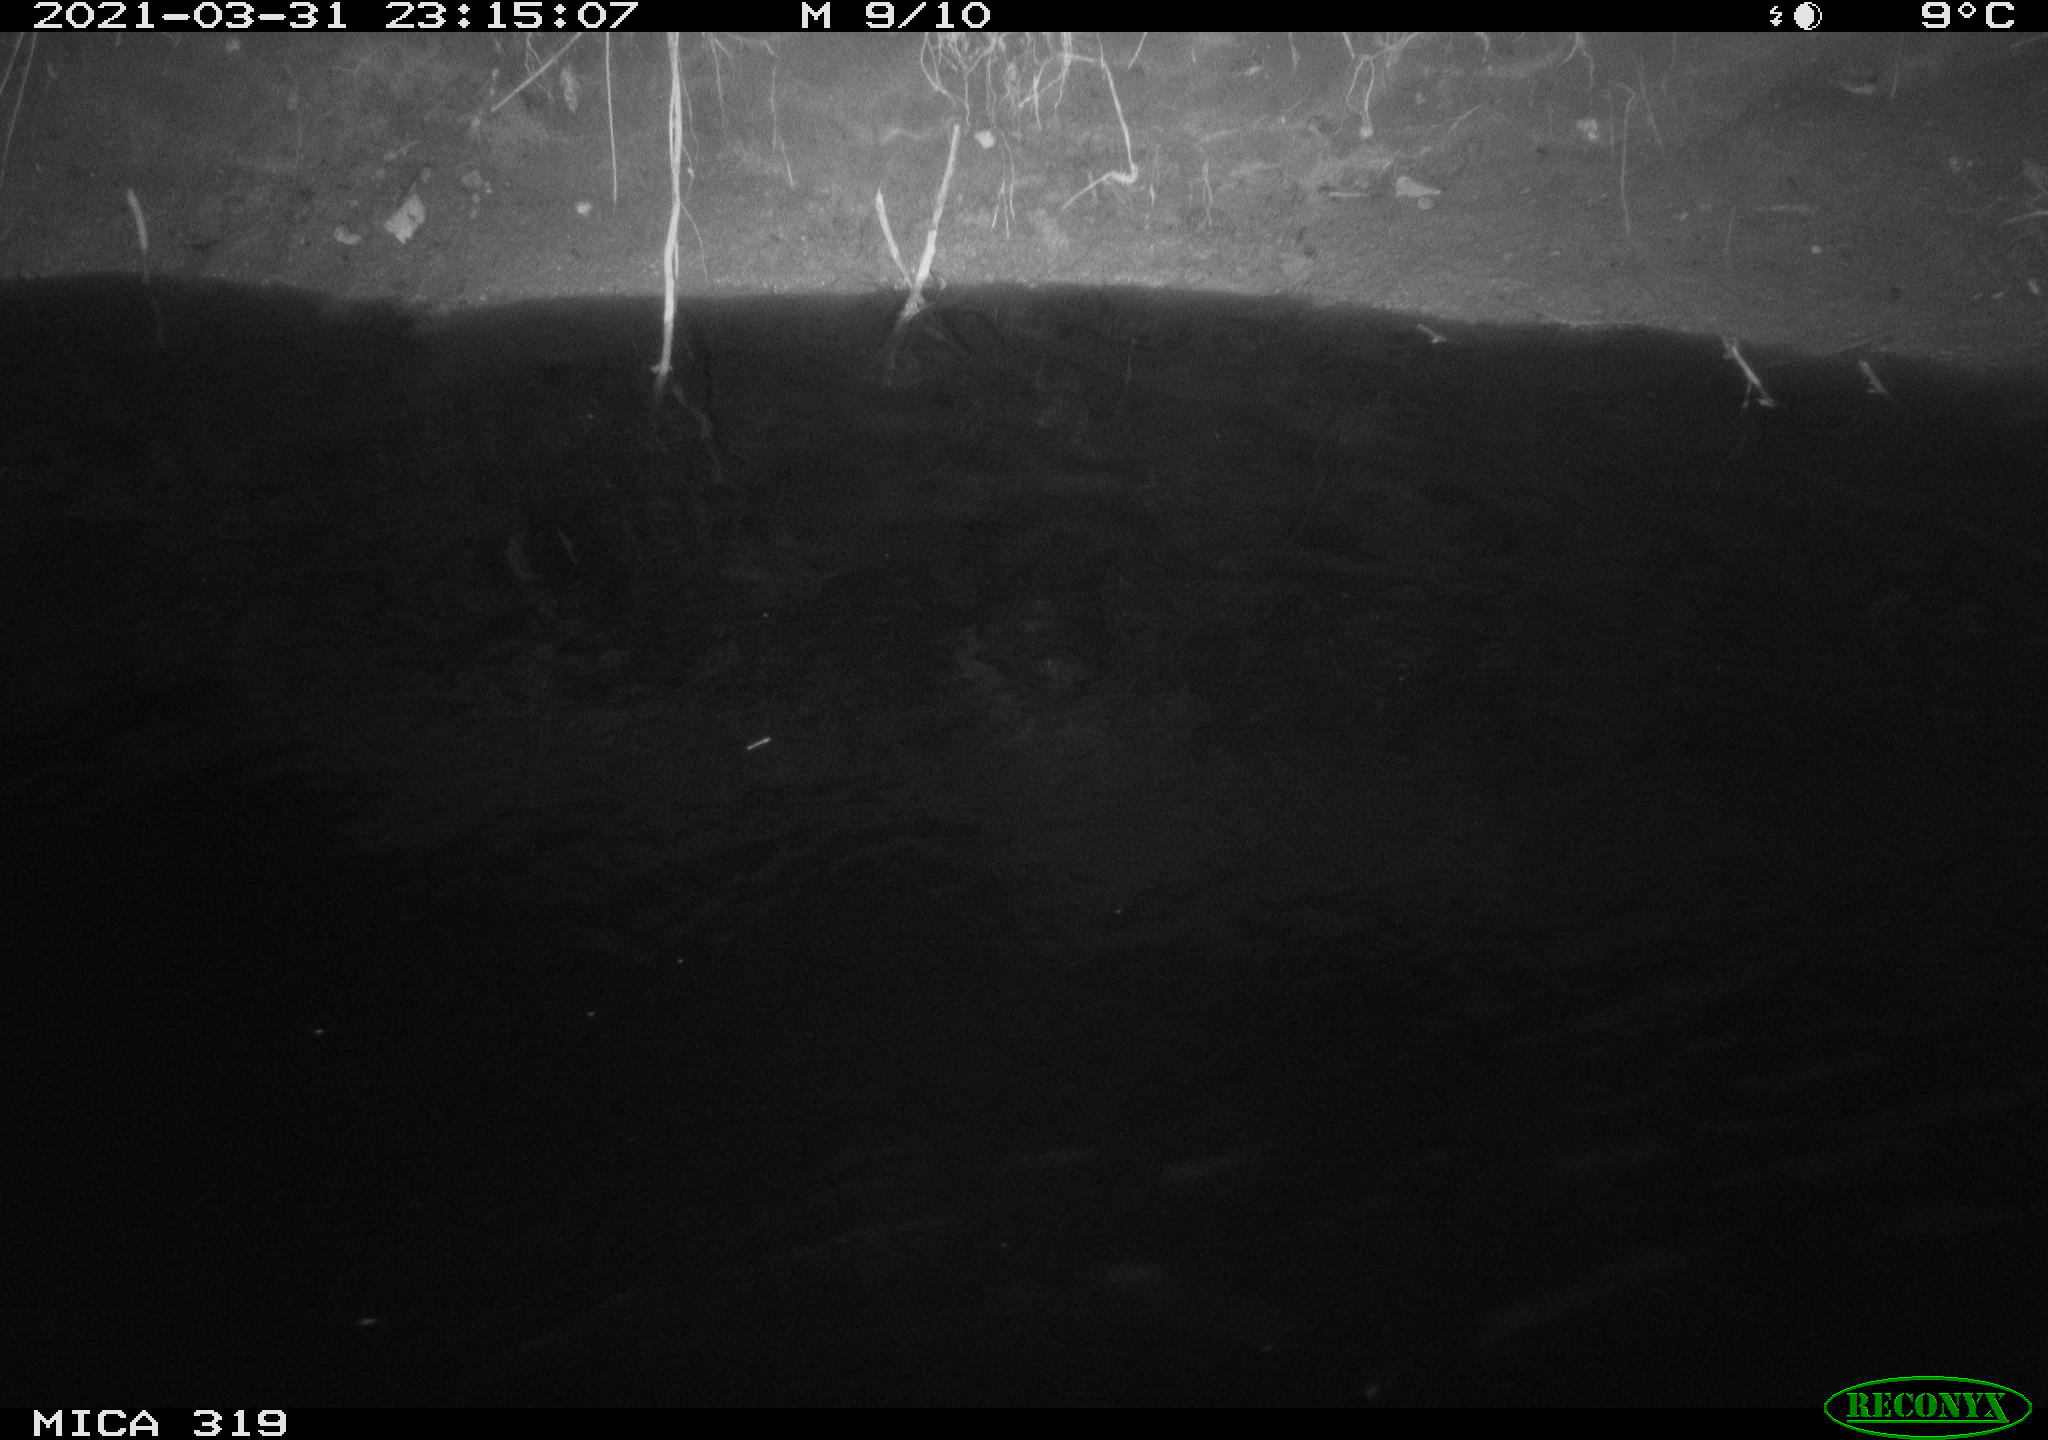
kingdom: Animalia
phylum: Chordata
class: Aves
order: Anseriformes
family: Anatidae
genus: Anas
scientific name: Anas platyrhynchos
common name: Mallard
